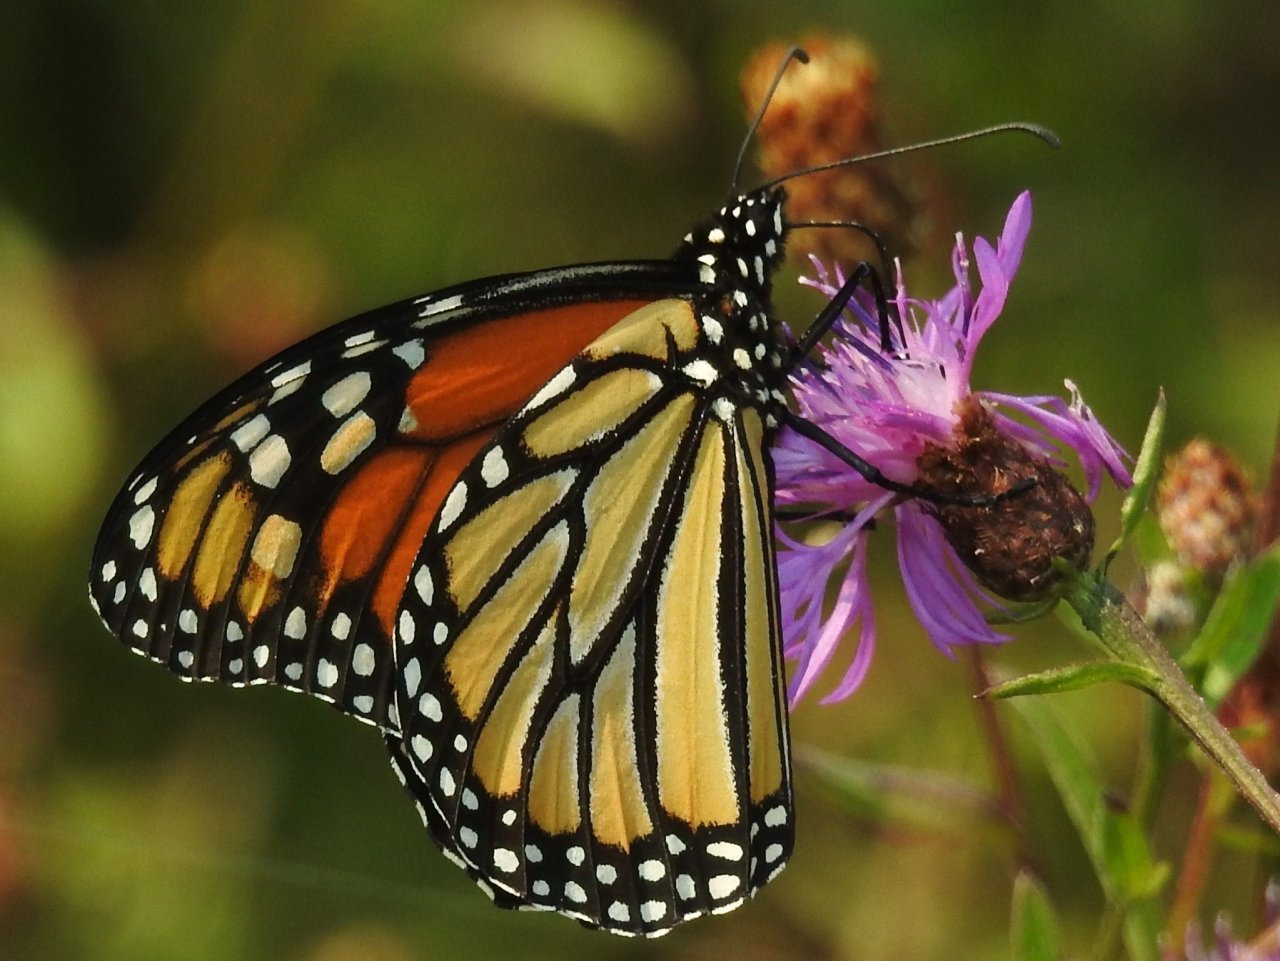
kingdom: Animalia
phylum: Arthropoda
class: Insecta
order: Lepidoptera
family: Nymphalidae
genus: Danaus
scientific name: Danaus plexippus
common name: Monarch
